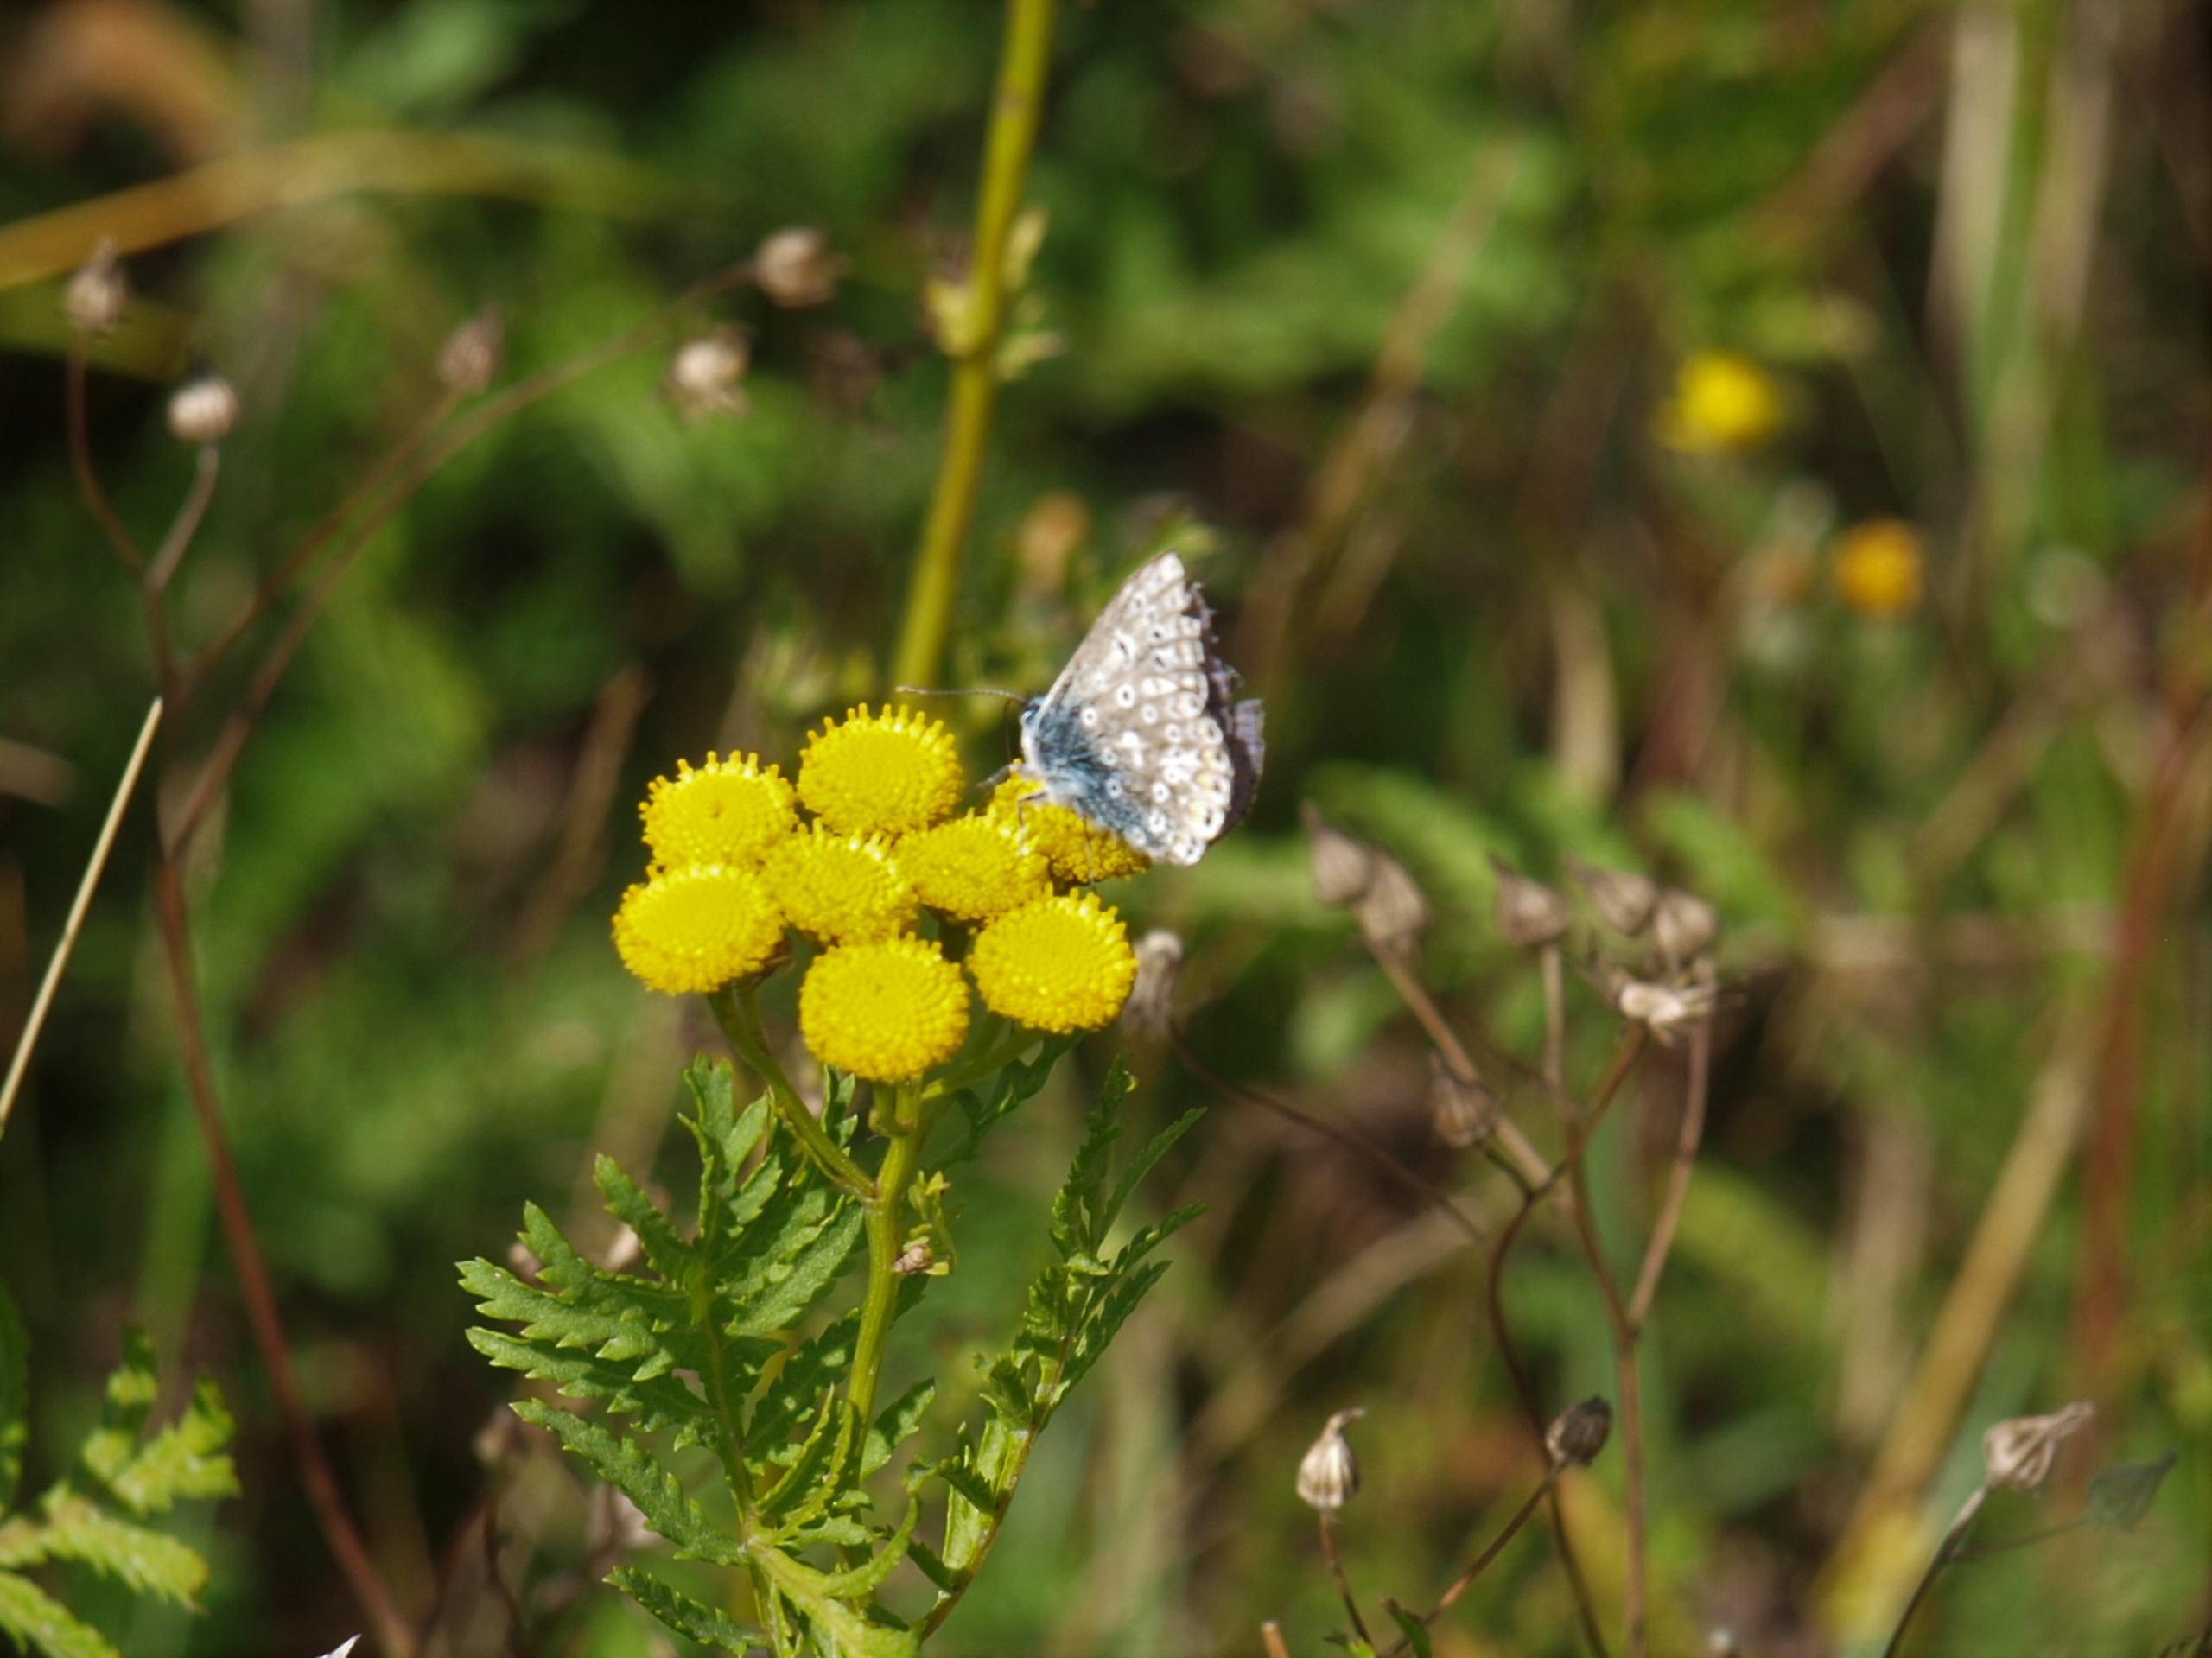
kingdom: Animalia
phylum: Arthropoda
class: Insecta
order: Lepidoptera
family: Lycaenidae
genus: Polyommatus
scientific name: Polyommatus icarus
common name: Almindelig blåfugl
